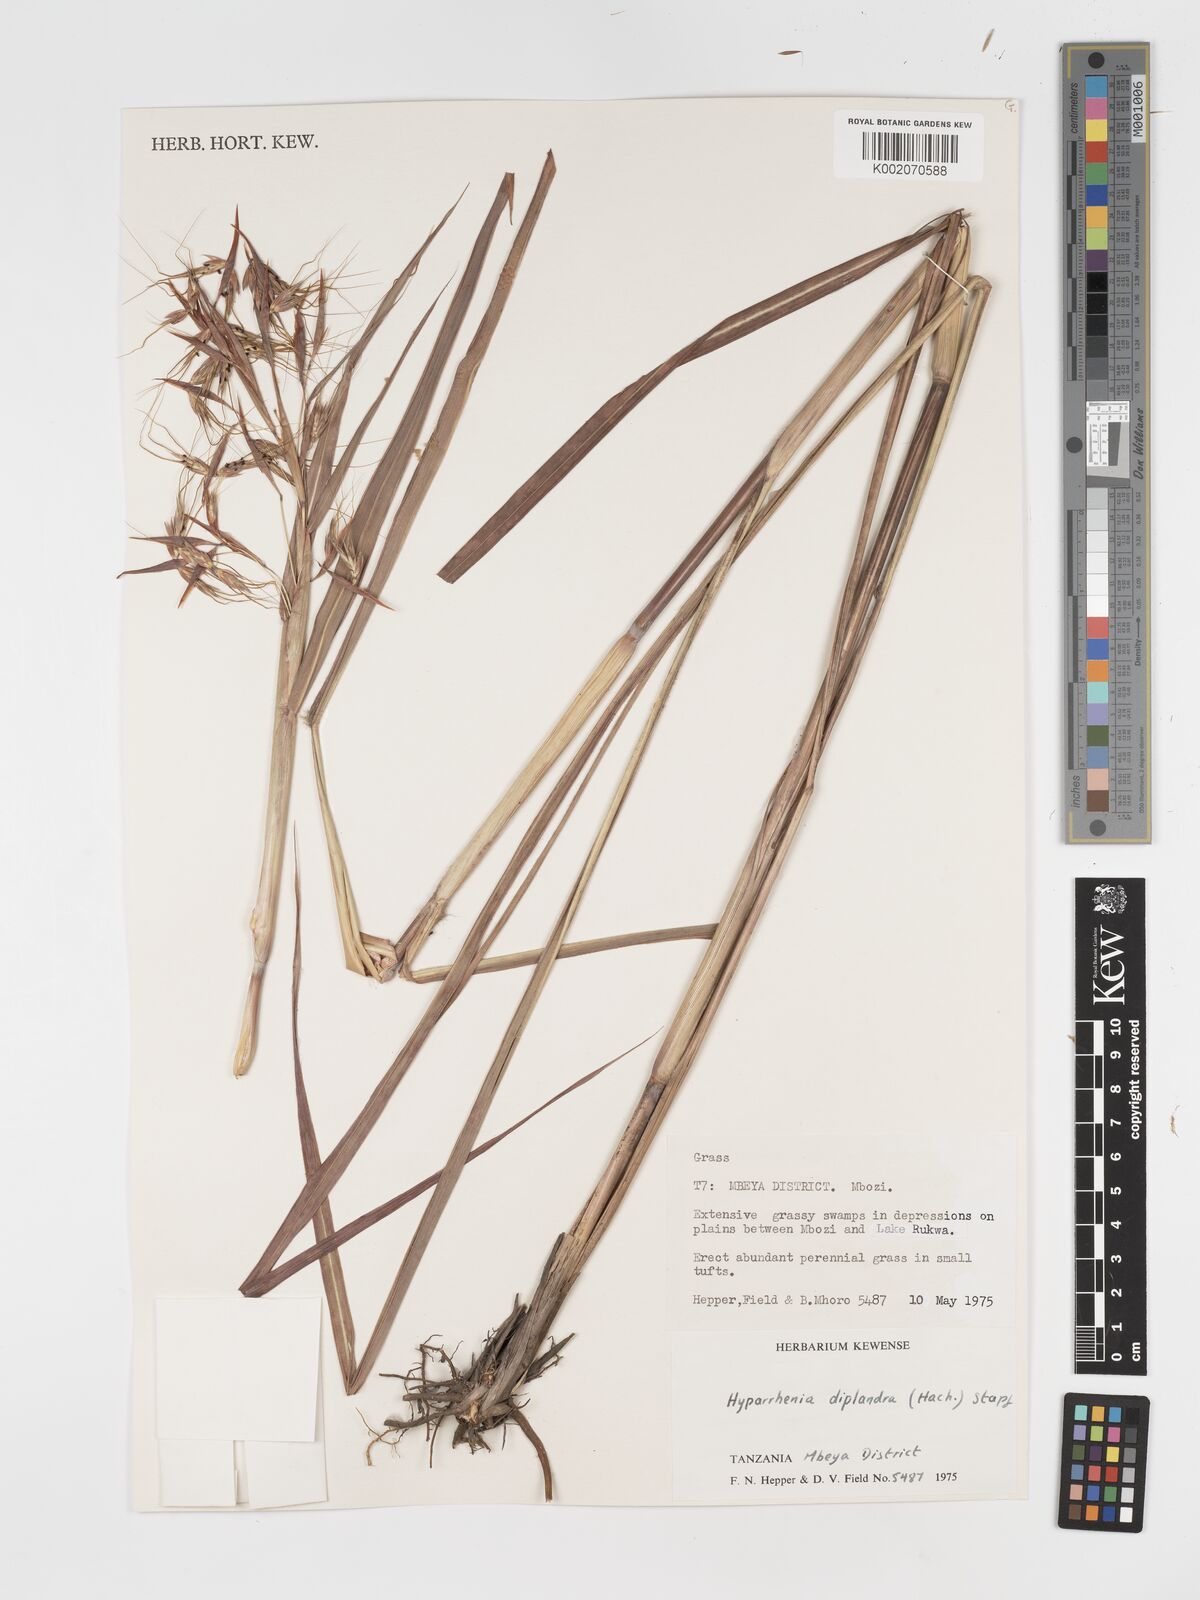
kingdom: Plantae
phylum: Tracheophyta
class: Liliopsida
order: Poales
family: Poaceae
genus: Hyparrhenia
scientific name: Hyparrhenia diplandra
